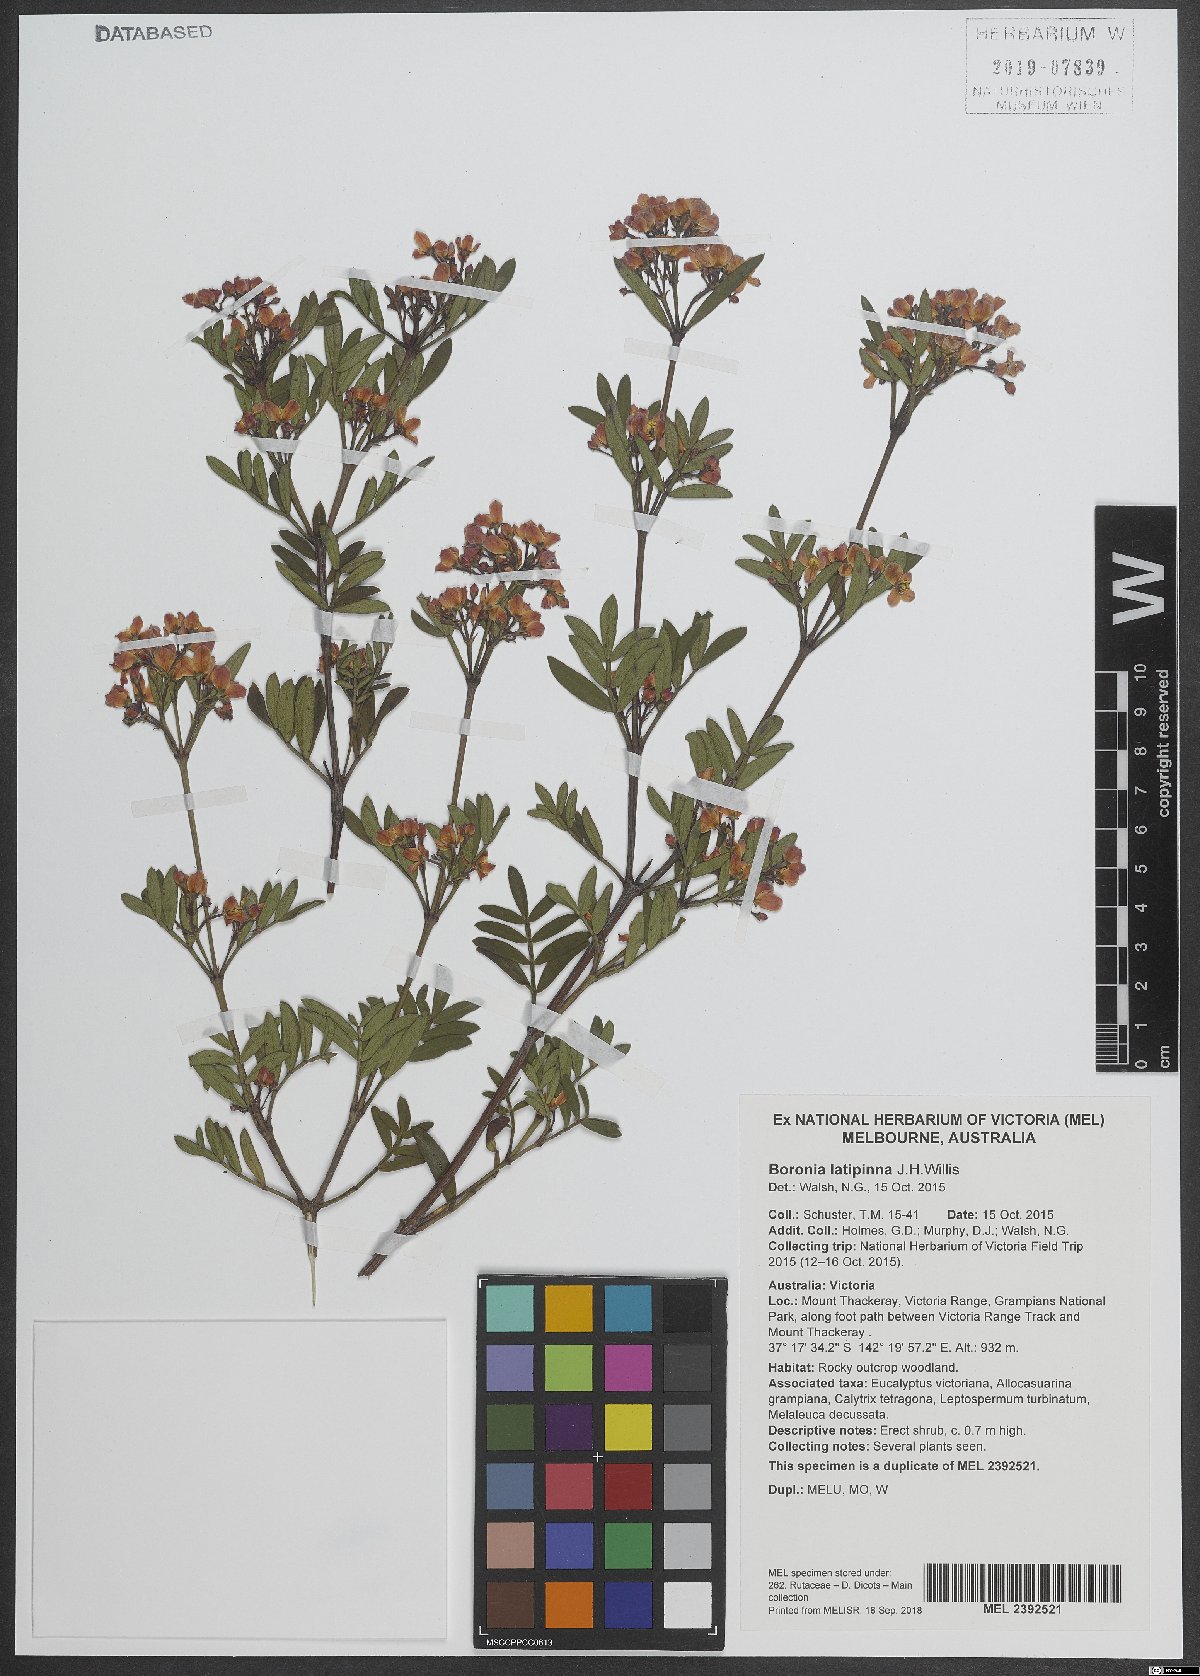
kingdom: Plantae
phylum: Tracheophyta
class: Magnoliopsida
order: Sapindales
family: Rutaceae
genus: Boronia
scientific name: Boronia latipinna
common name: Grampians boronia
